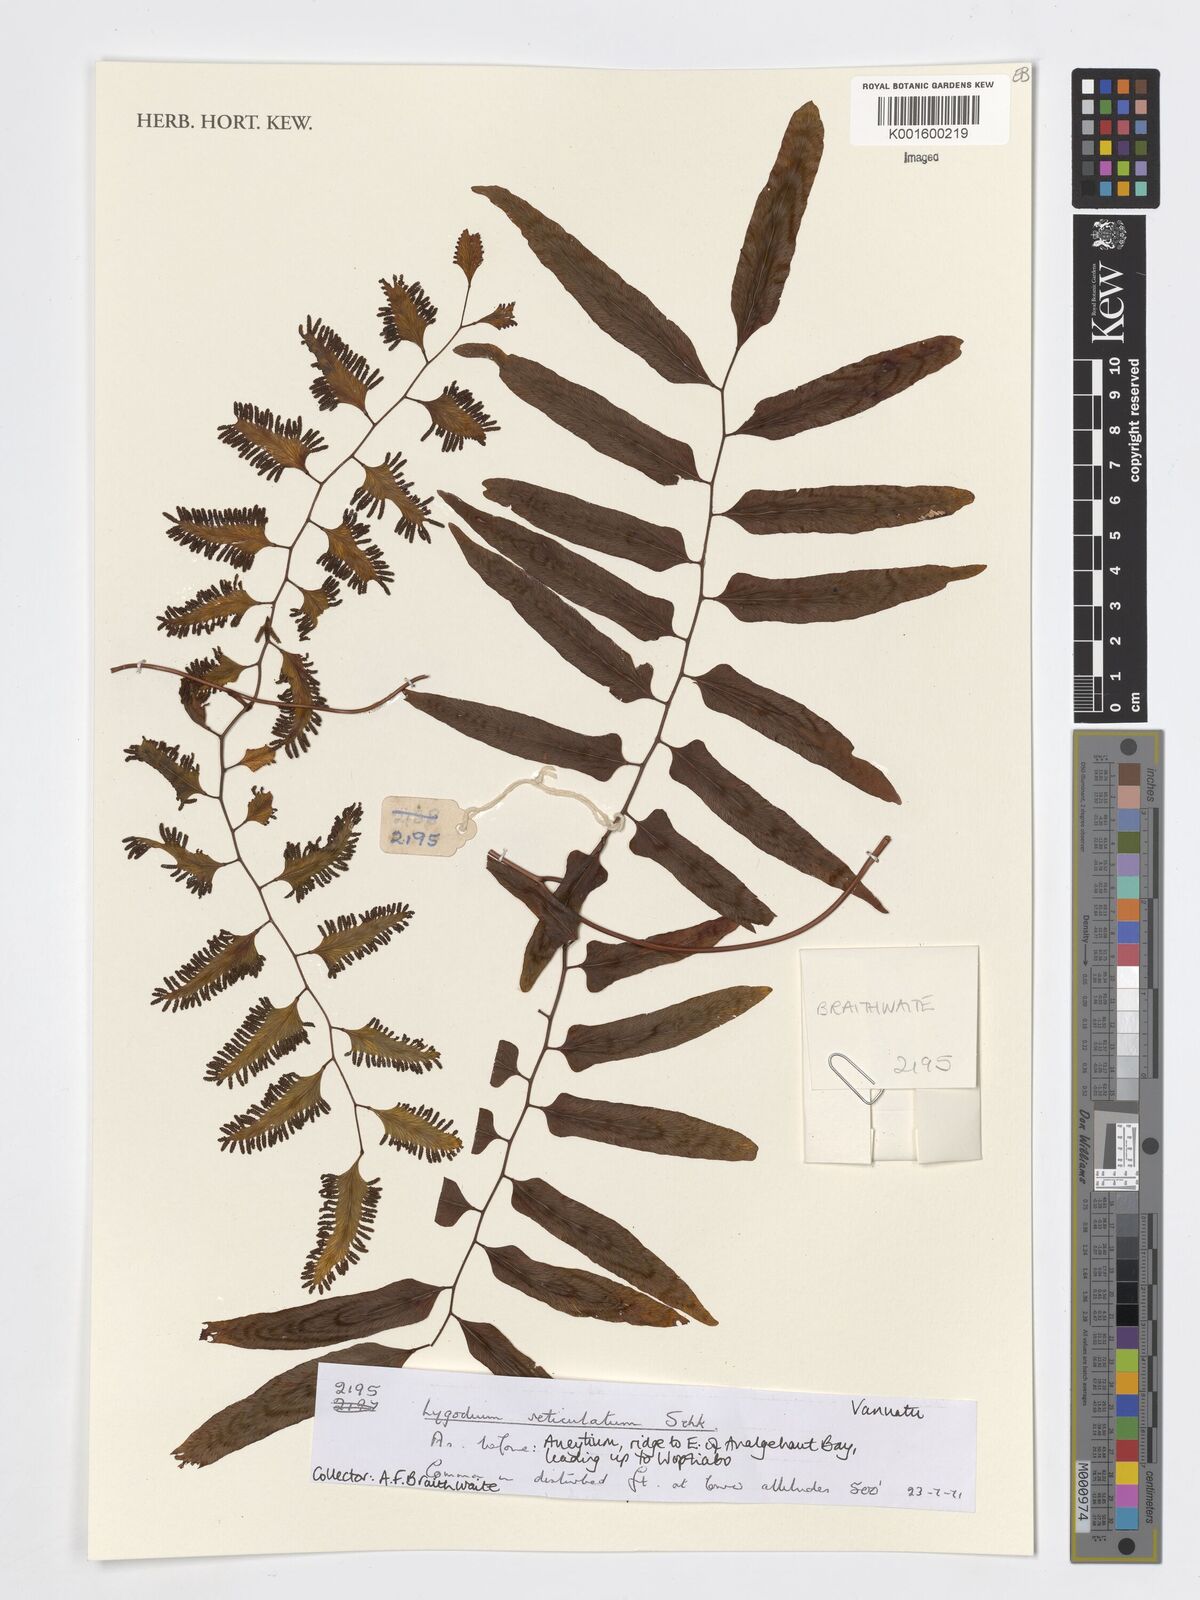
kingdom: Plantae
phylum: Tracheophyta
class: Polypodiopsida
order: Schizaeales
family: Lygodiaceae
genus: Lygodium
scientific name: Lygodium reticulatum
